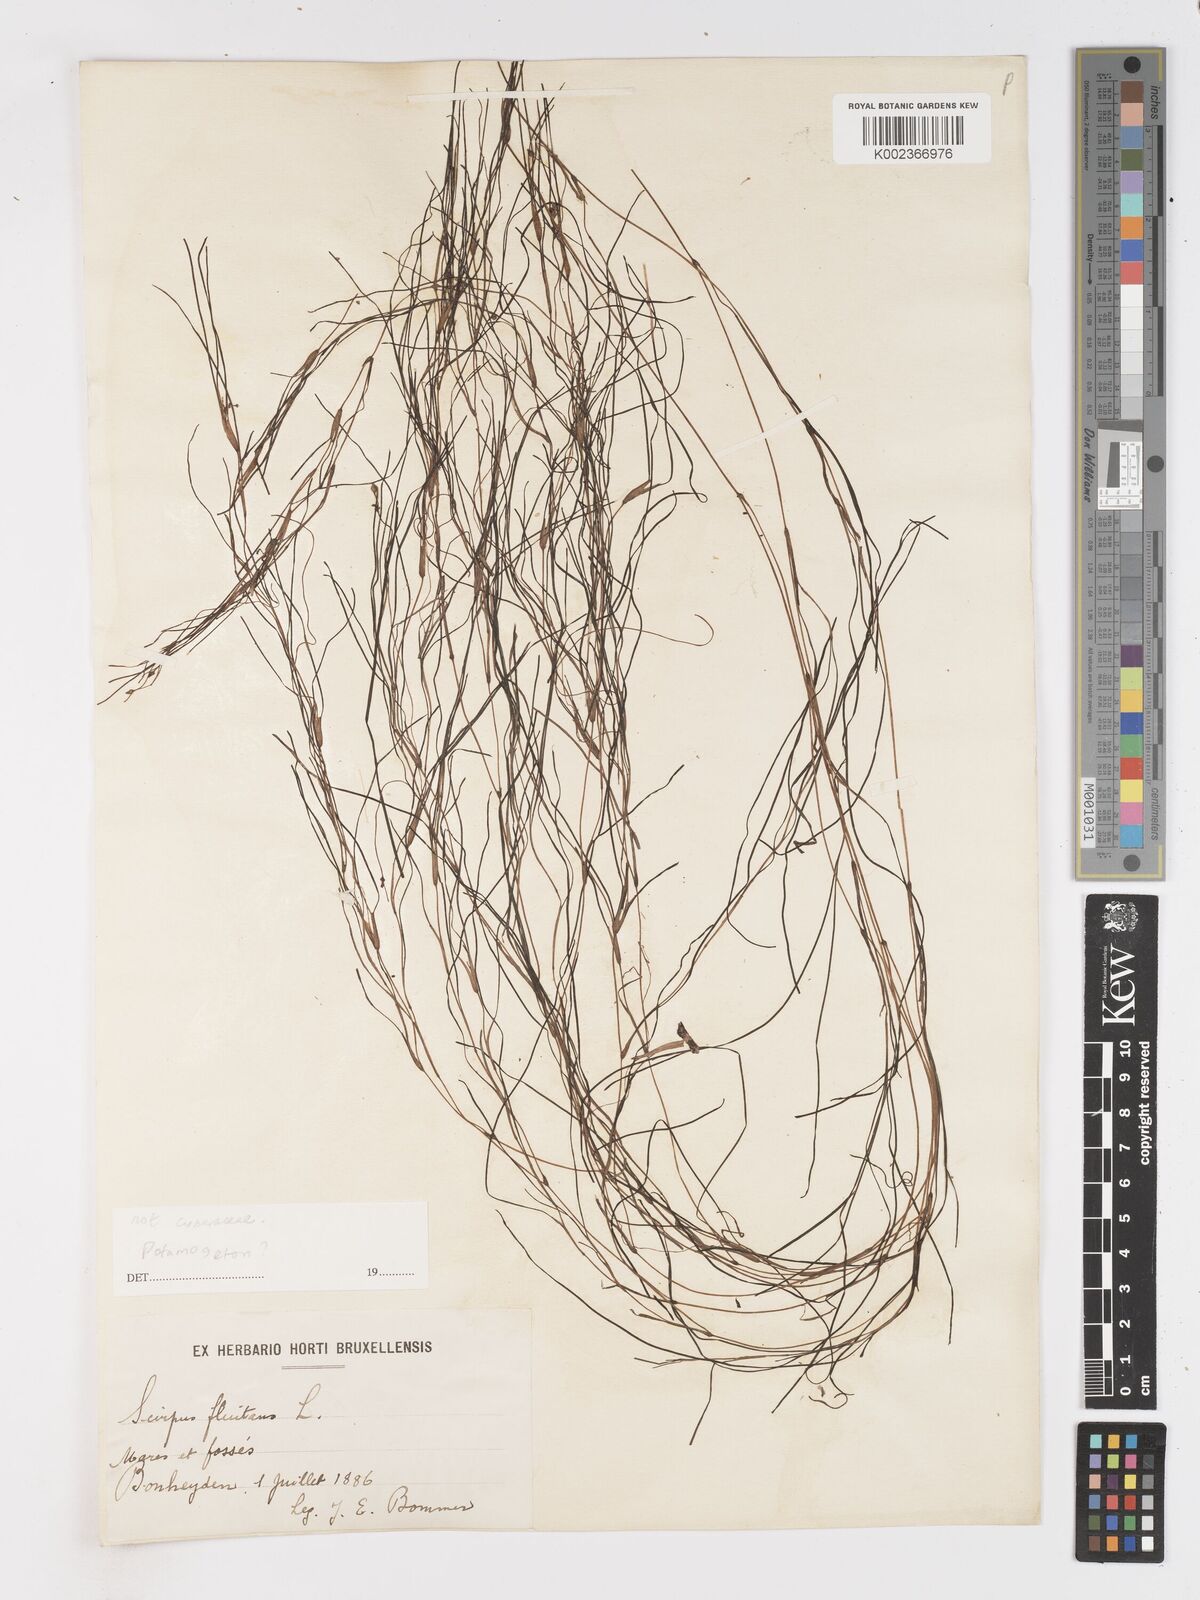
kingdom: Plantae
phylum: Tracheophyta
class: Liliopsida
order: Poales
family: Cyperaceae
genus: Isolepis
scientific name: Isolepis fluitans
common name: Floating club-rush
